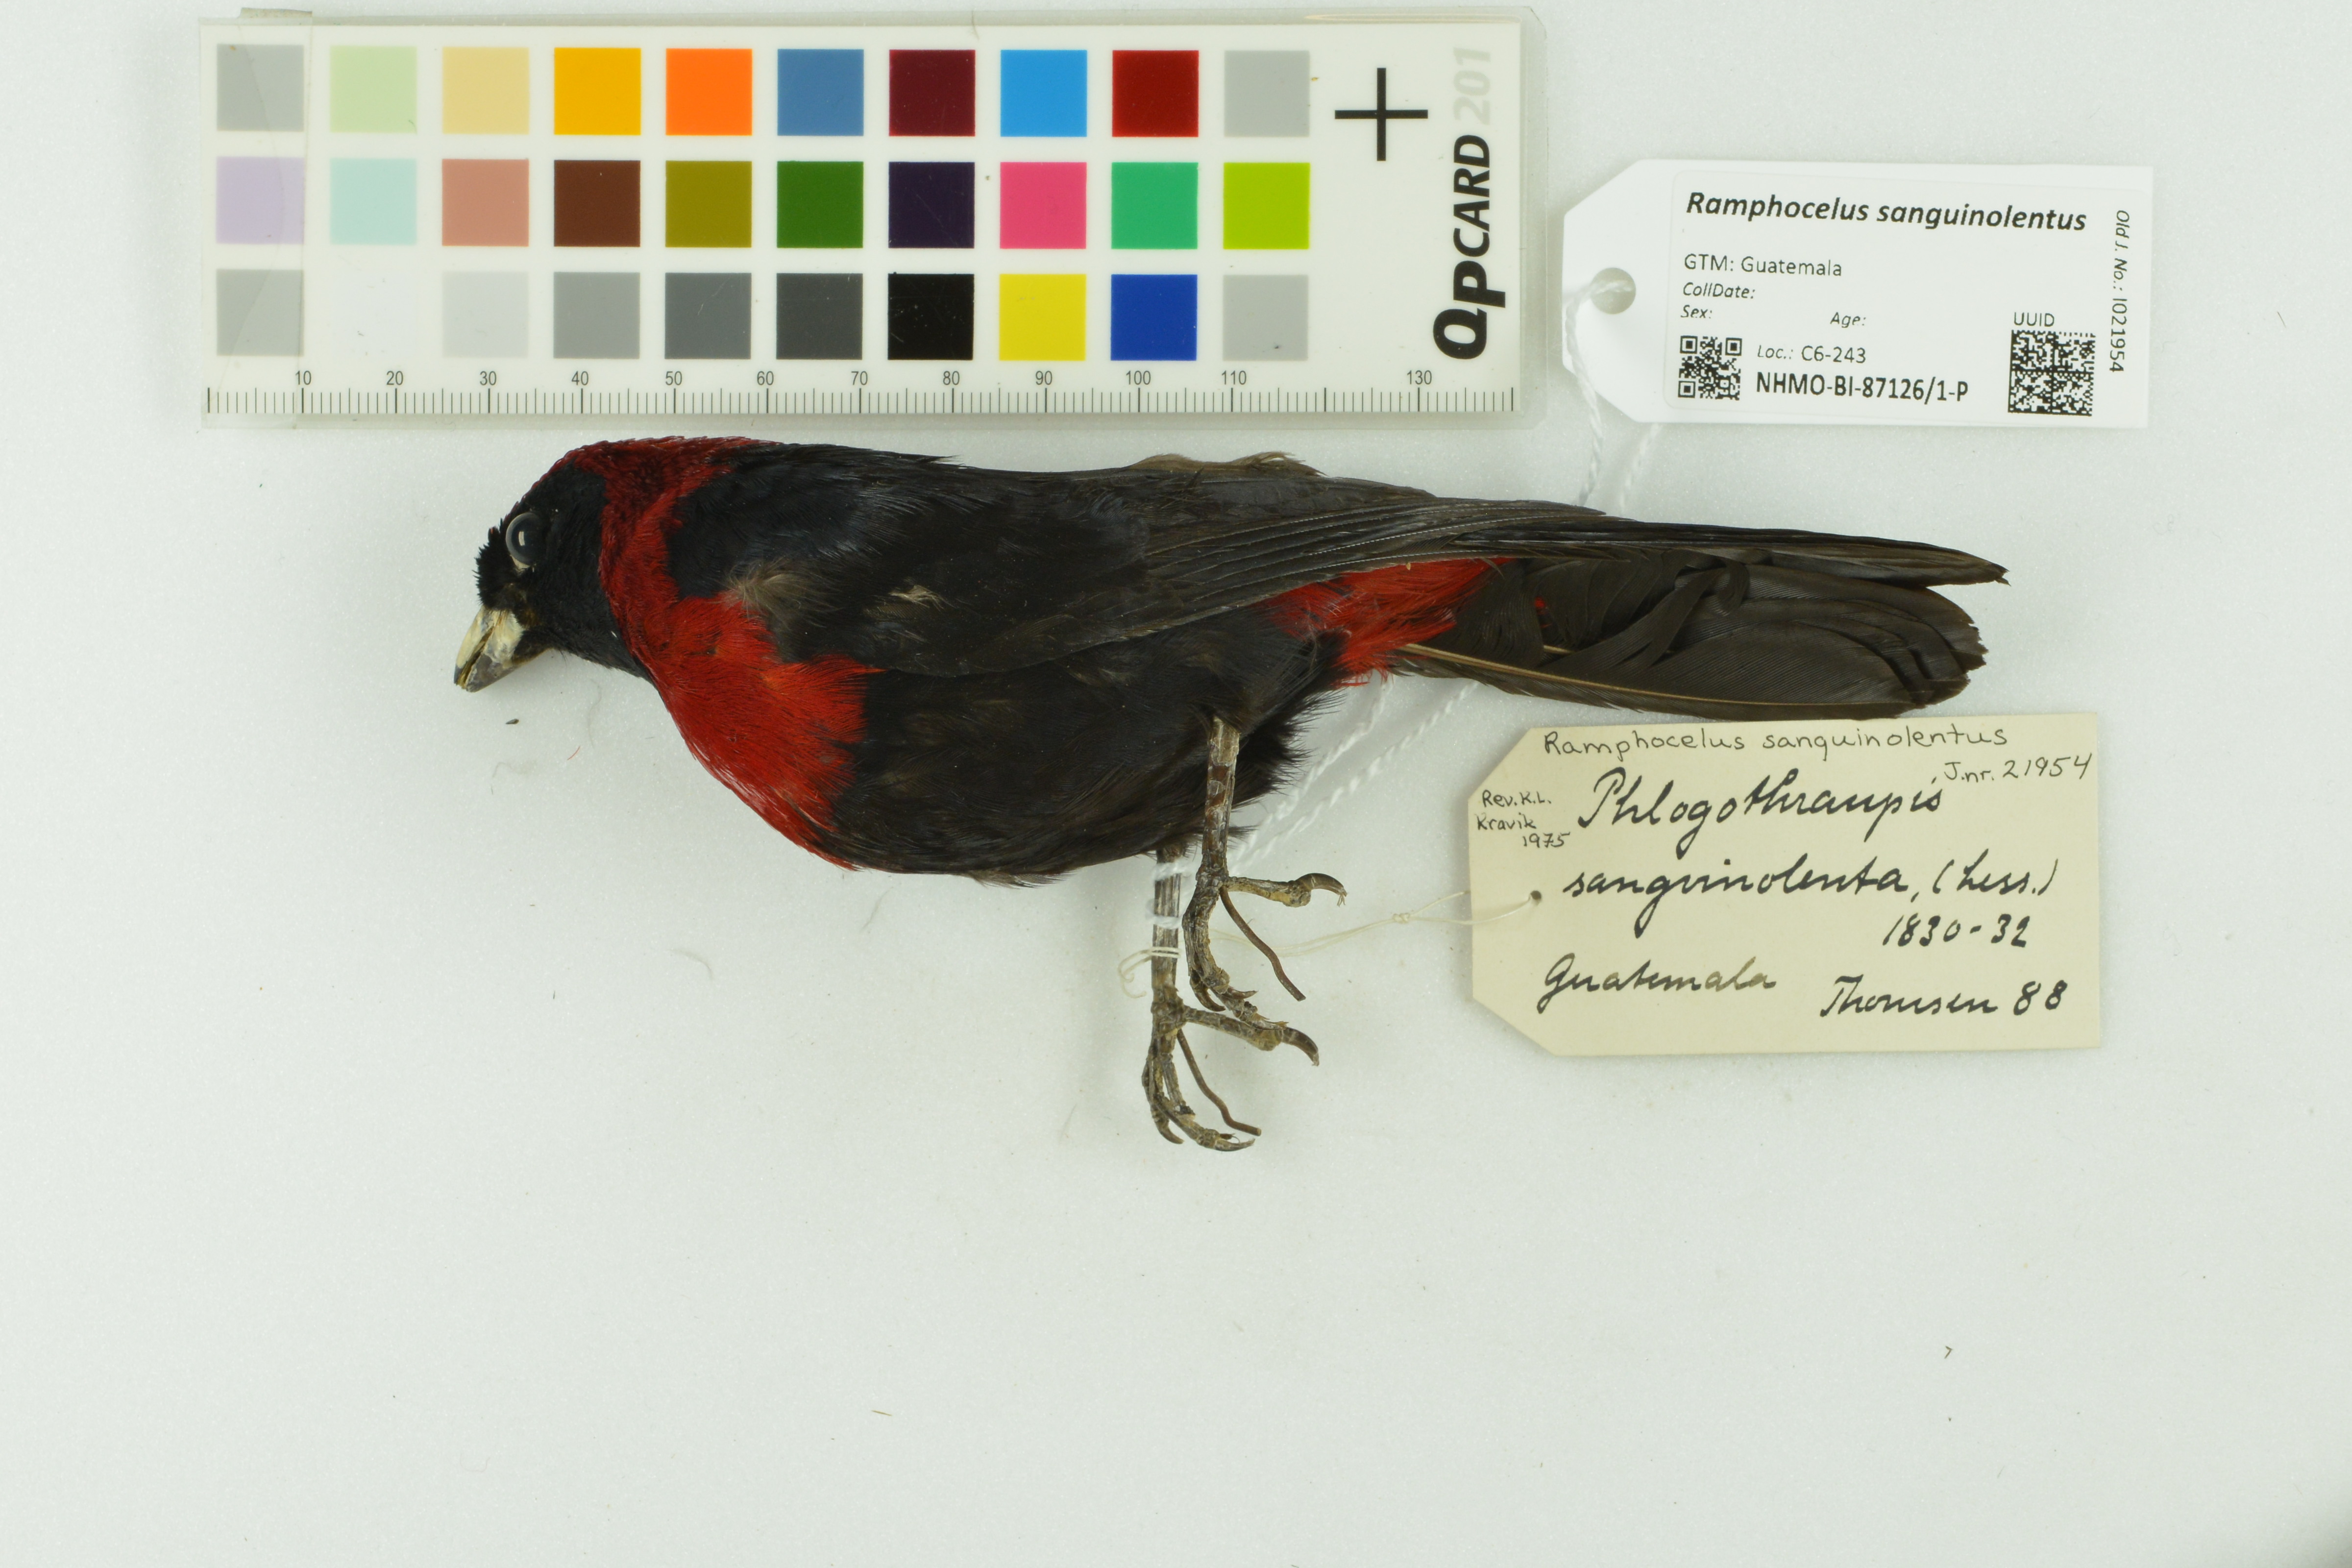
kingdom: Animalia
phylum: Chordata
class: Aves
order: Passeriformes
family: Thraupidae
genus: Ramphocelus
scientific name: Ramphocelus sanguinolentus
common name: Crimson-collared tanager
